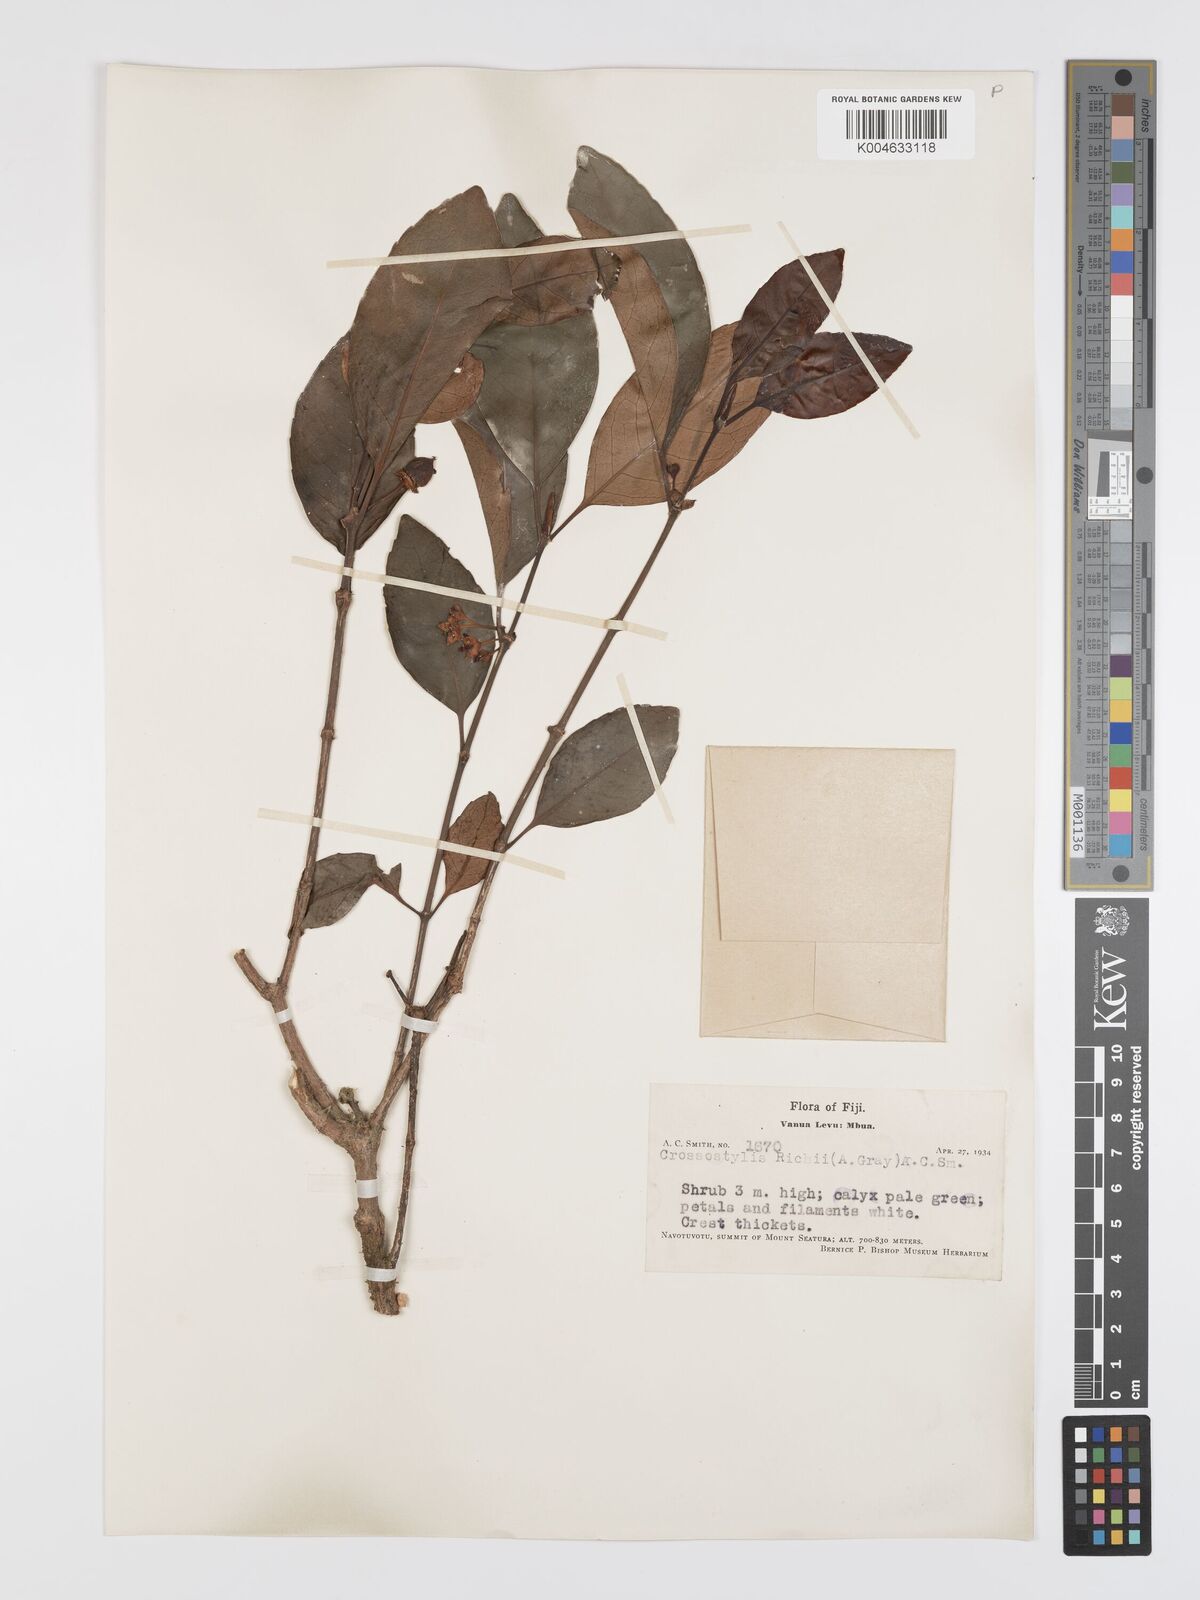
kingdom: Plantae
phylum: Tracheophyta
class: Magnoliopsida
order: Malpighiales
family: Rhizophoraceae
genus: Crossostylis
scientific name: Crossostylis richii
